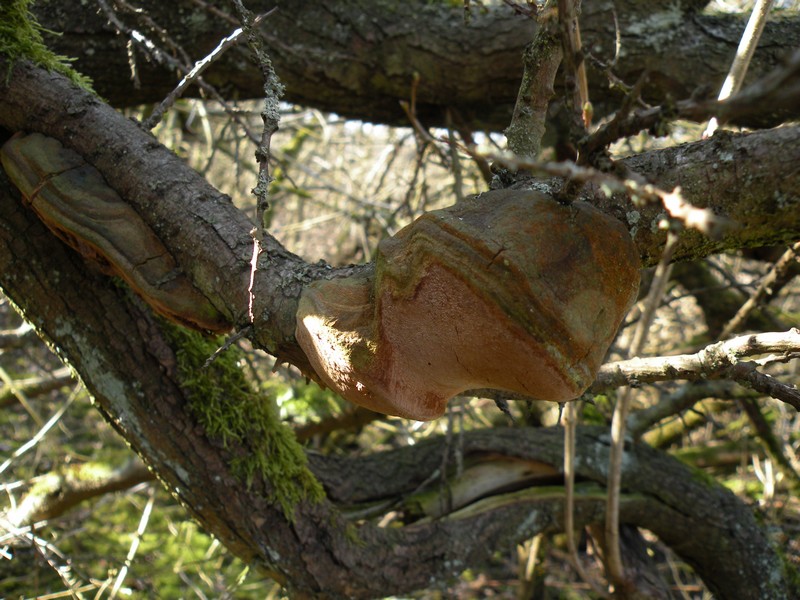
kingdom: Fungi
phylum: Basidiomycota
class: Agaricomycetes
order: Hymenochaetales
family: Hymenochaetaceae
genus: Fomitiporia
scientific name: Fomitiporia hippophaeicola
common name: havtorn-ildporesvamp
